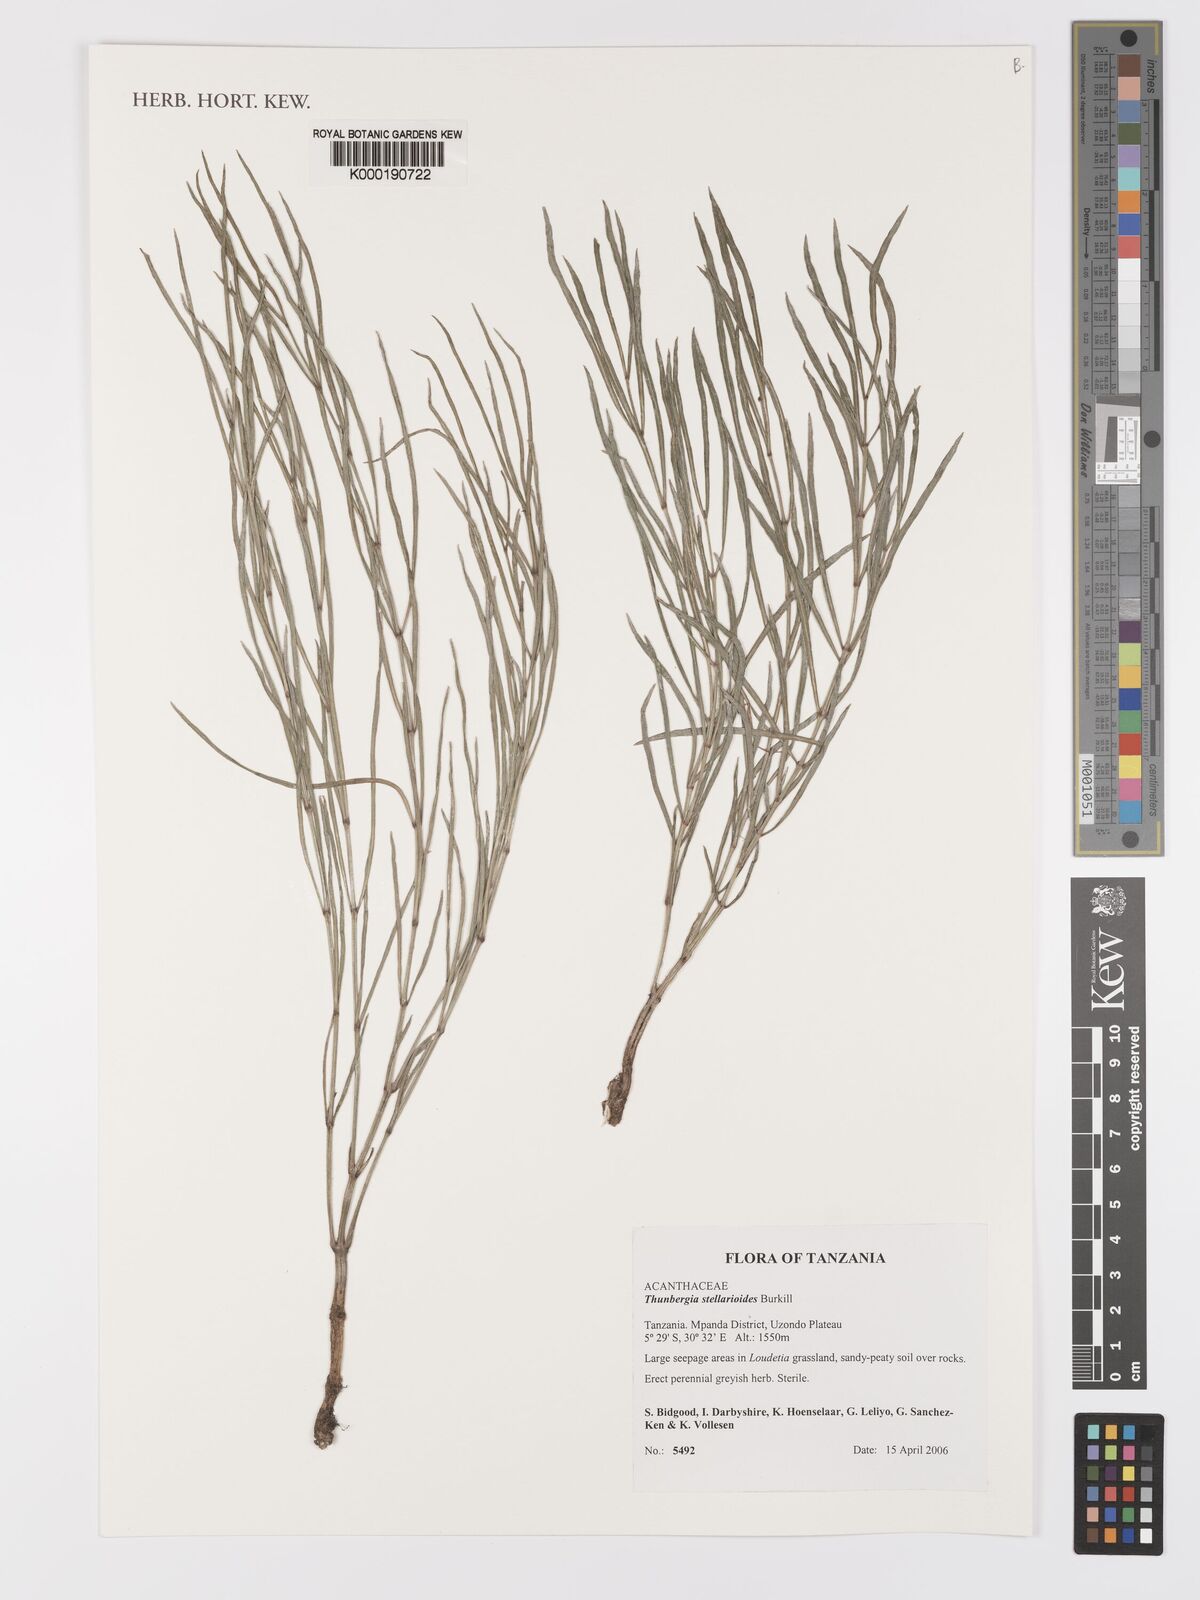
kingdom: Plantae
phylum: Tracheophyta
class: Magnoliopsida
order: Lamiales
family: Acanthaceae
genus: Thunbergia
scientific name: Thunbergia stellarioides
